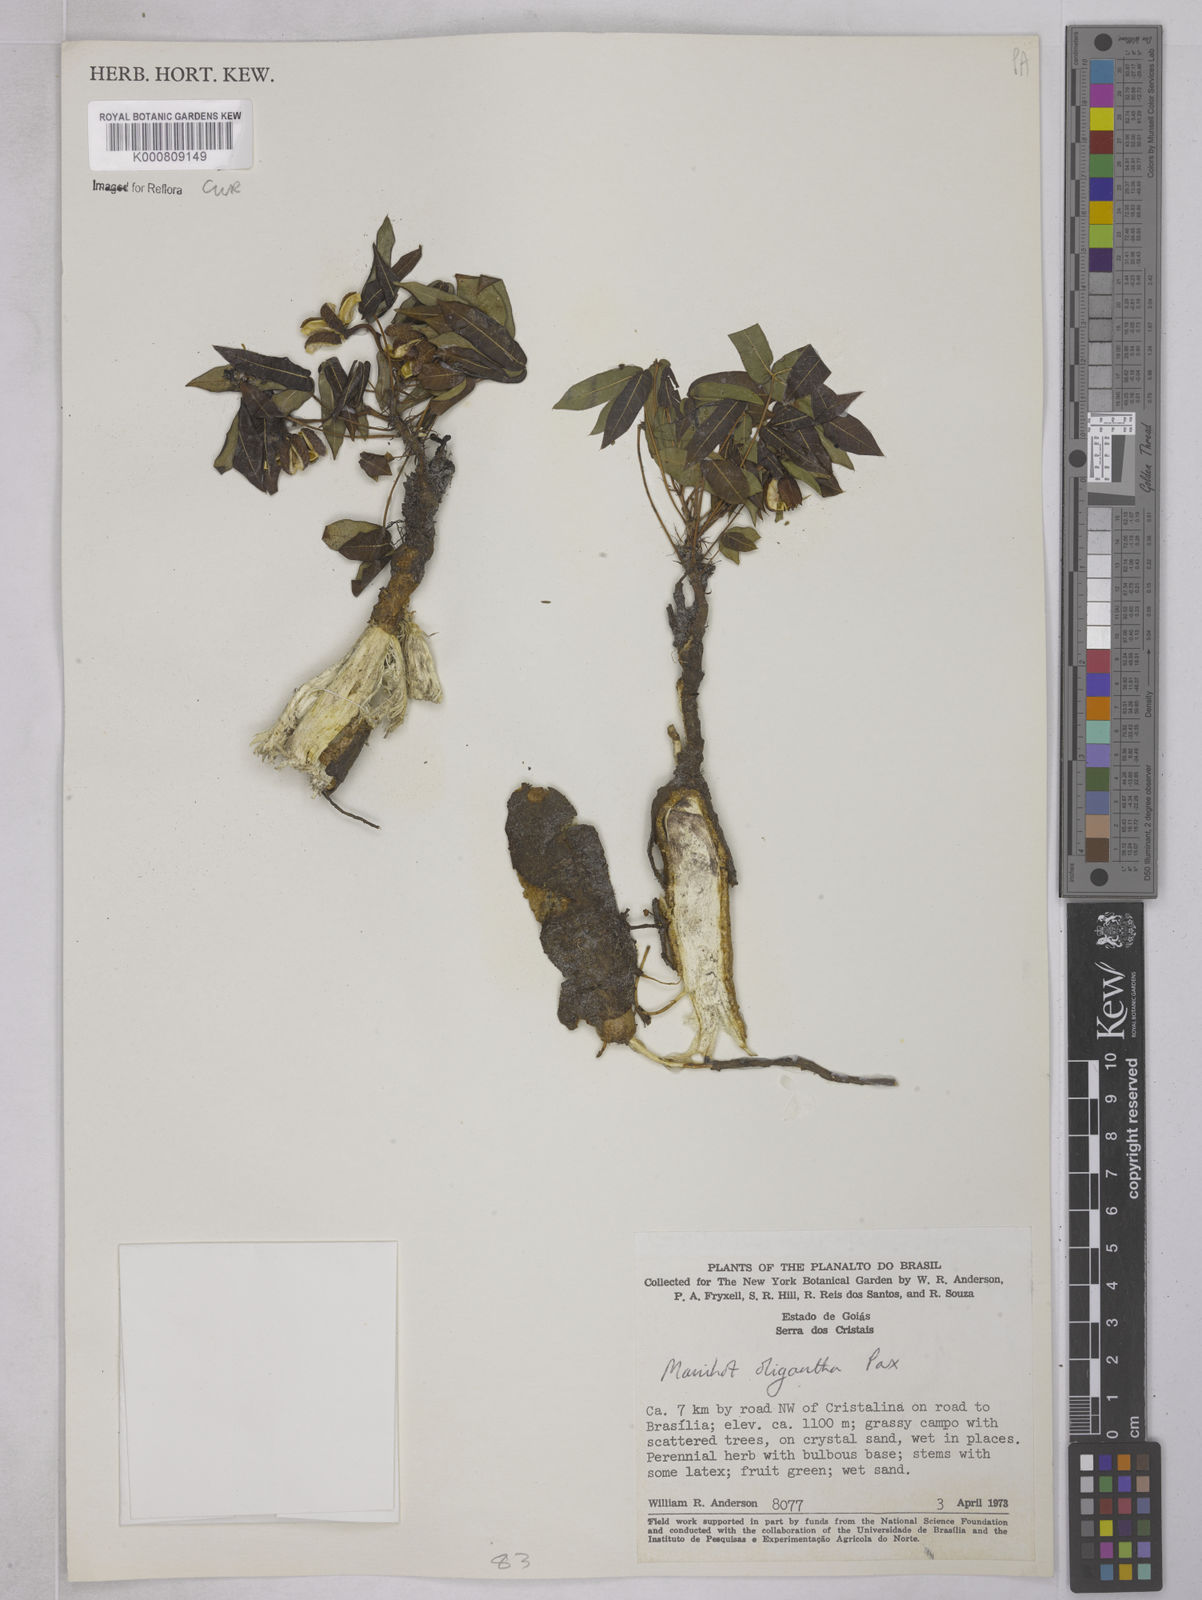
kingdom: Plantae
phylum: Tracheophyta
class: Magnoliopsida
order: Malpighiales
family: Euphorbiaceae
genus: Manihot
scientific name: Manihot oligantha
